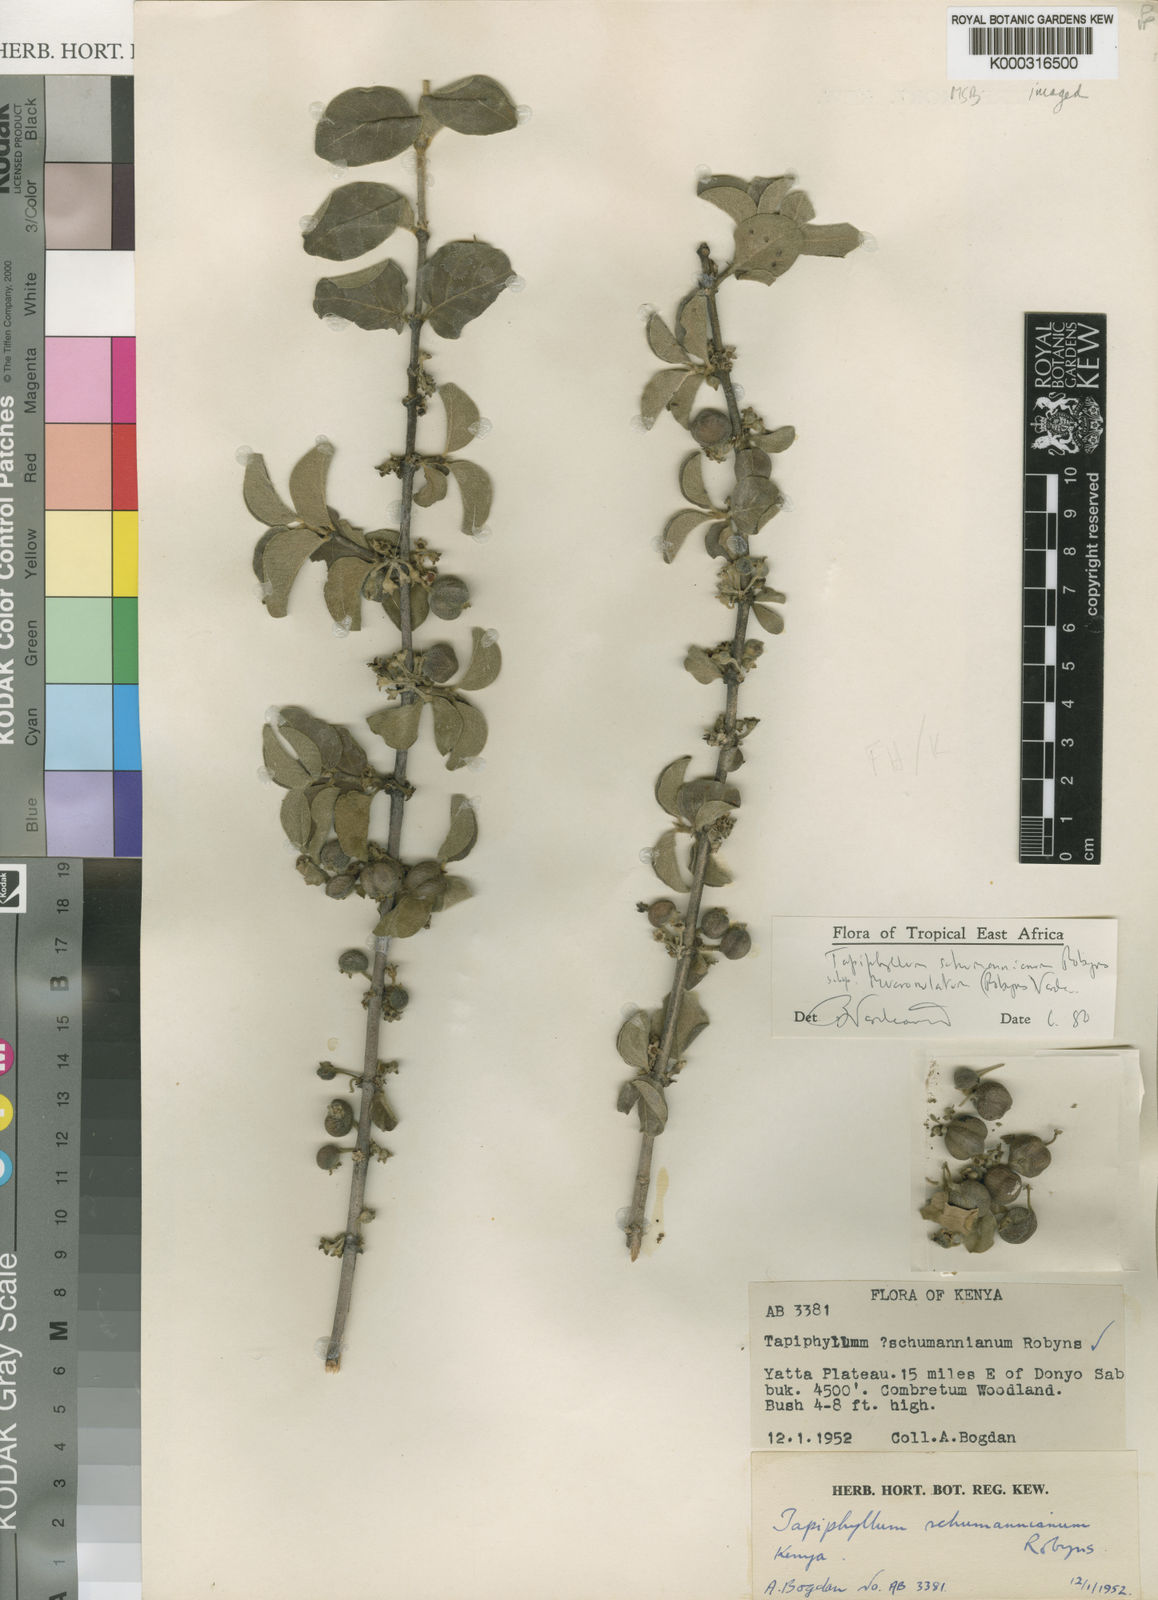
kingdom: Plantae
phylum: Tracheophyta
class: Magnoliopsida
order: Gentianales
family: Rubiaceae
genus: Vangueria
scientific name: Vangueria schumanniana
